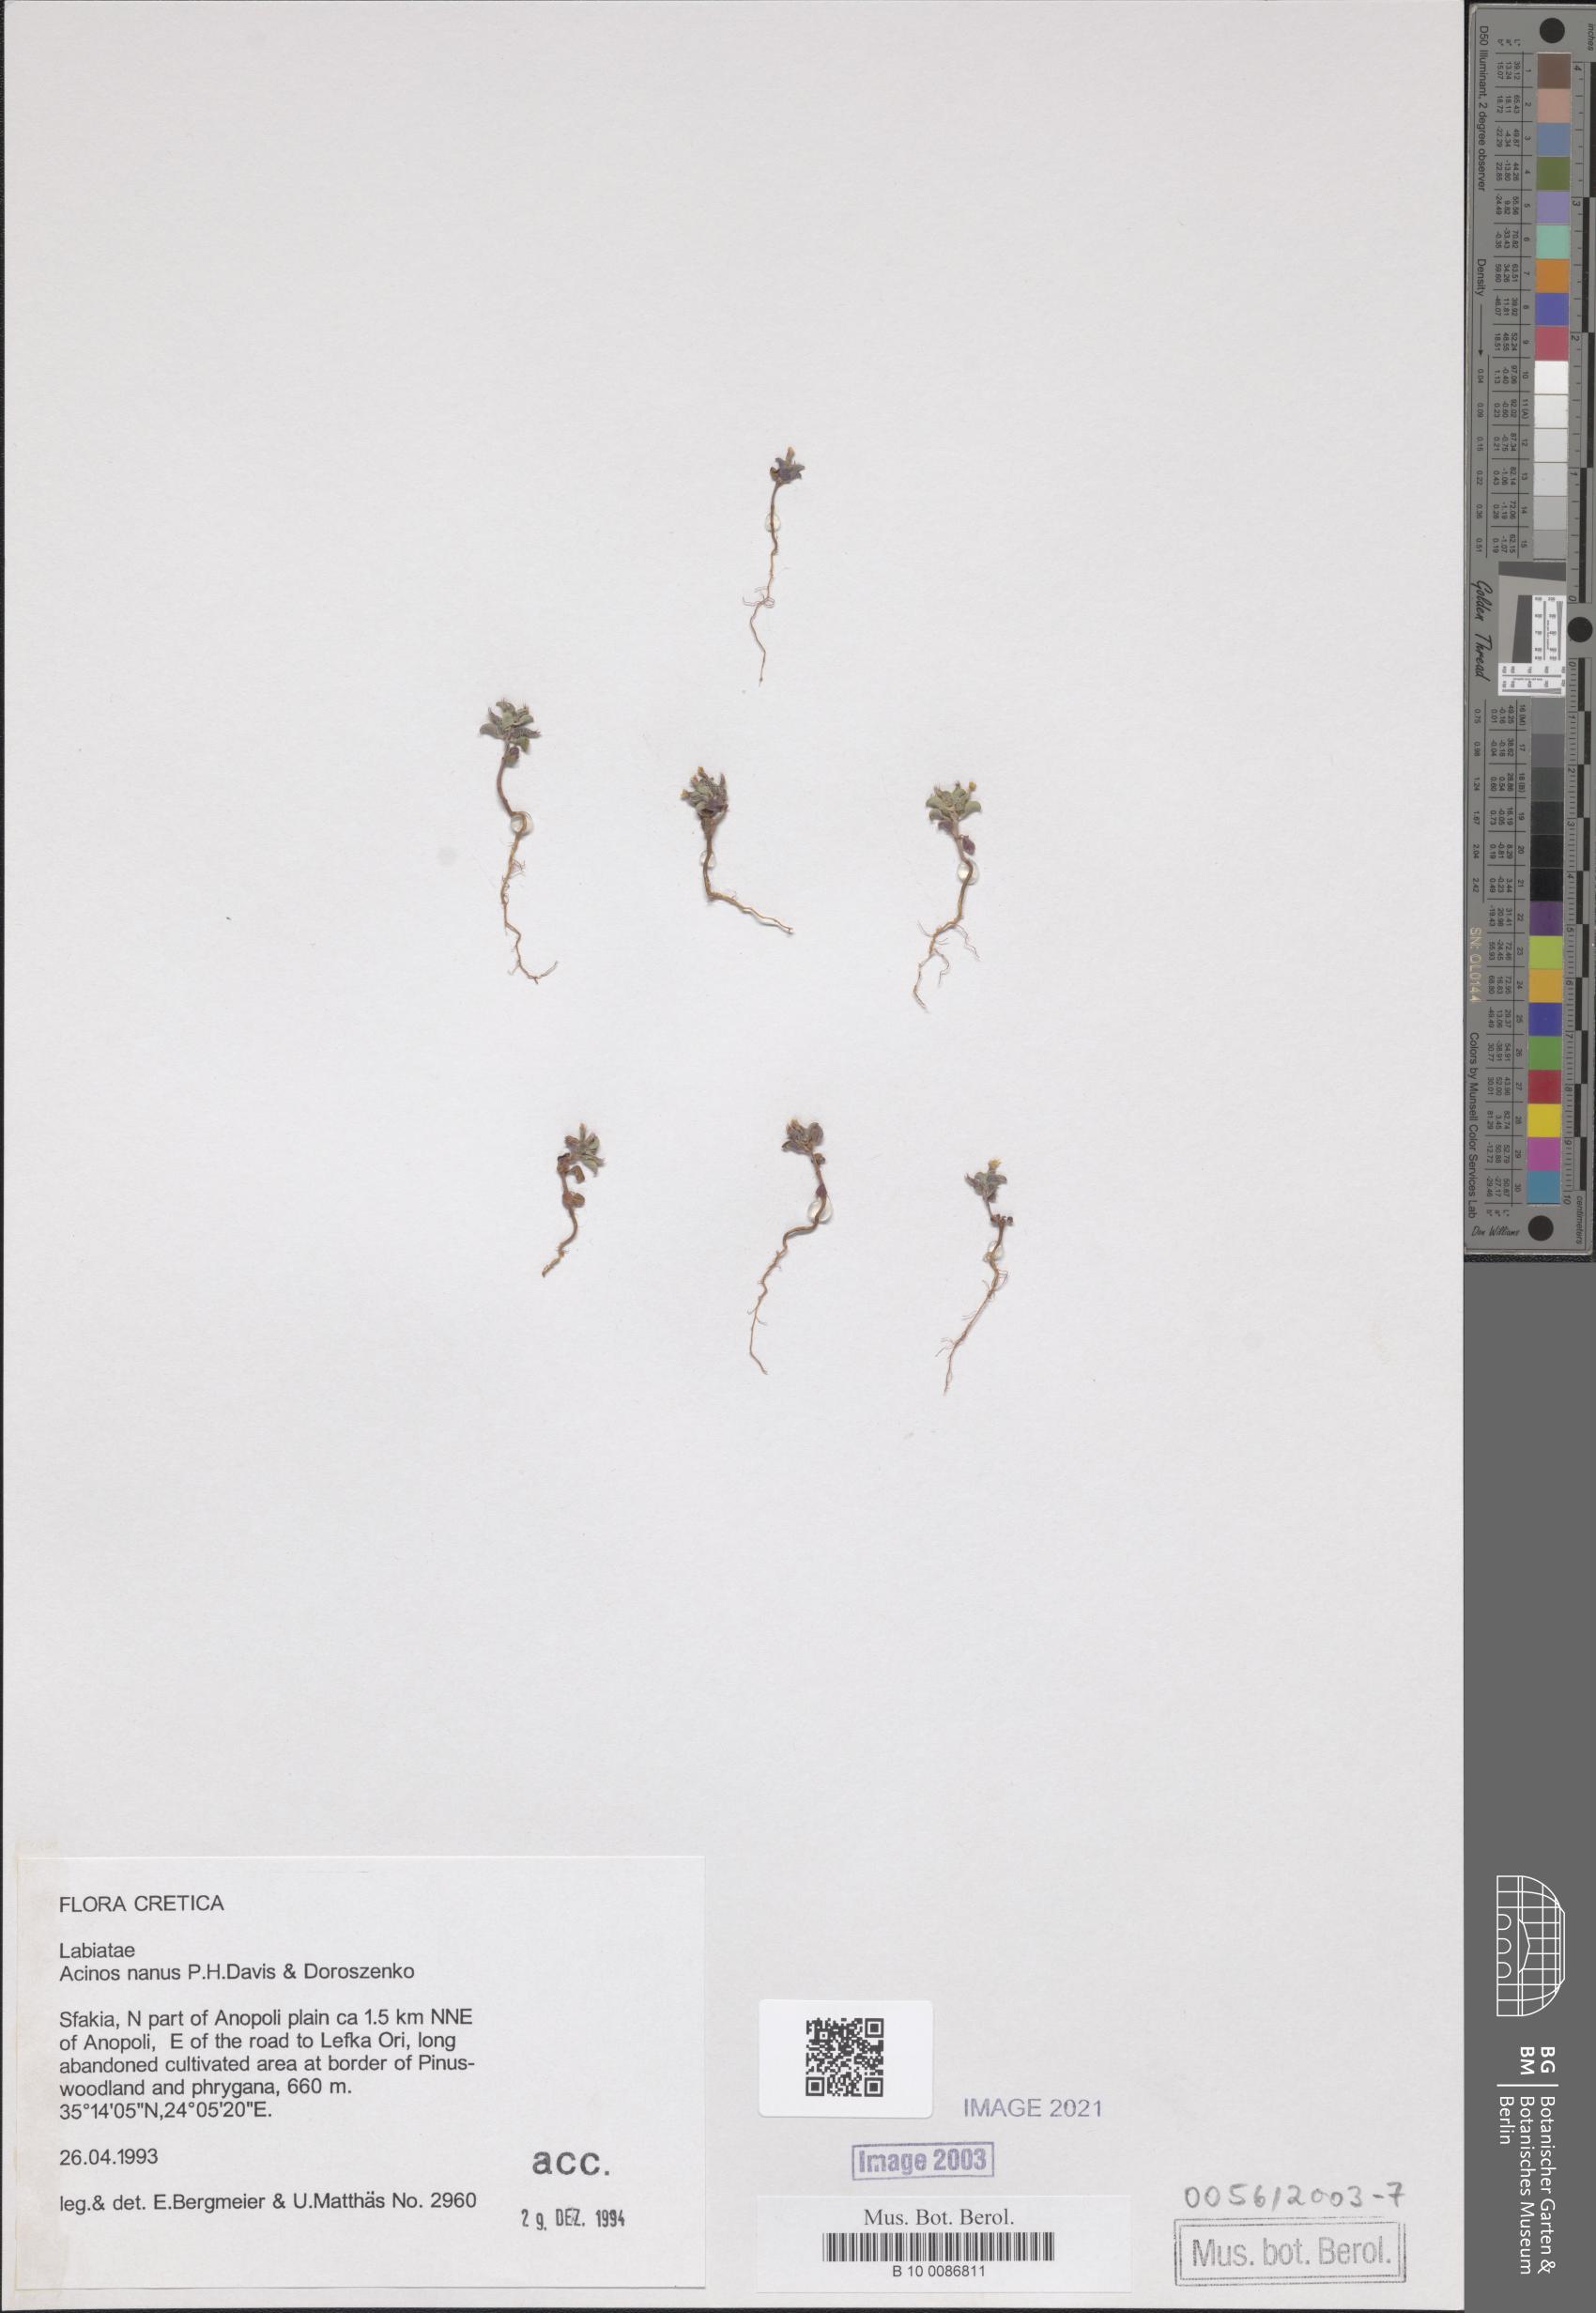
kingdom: Plantae
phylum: Tracheophyta
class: Magnoliopsida
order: Lamiales
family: Lamiaceae
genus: Clinopodium
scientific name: Clinopodium nanum
